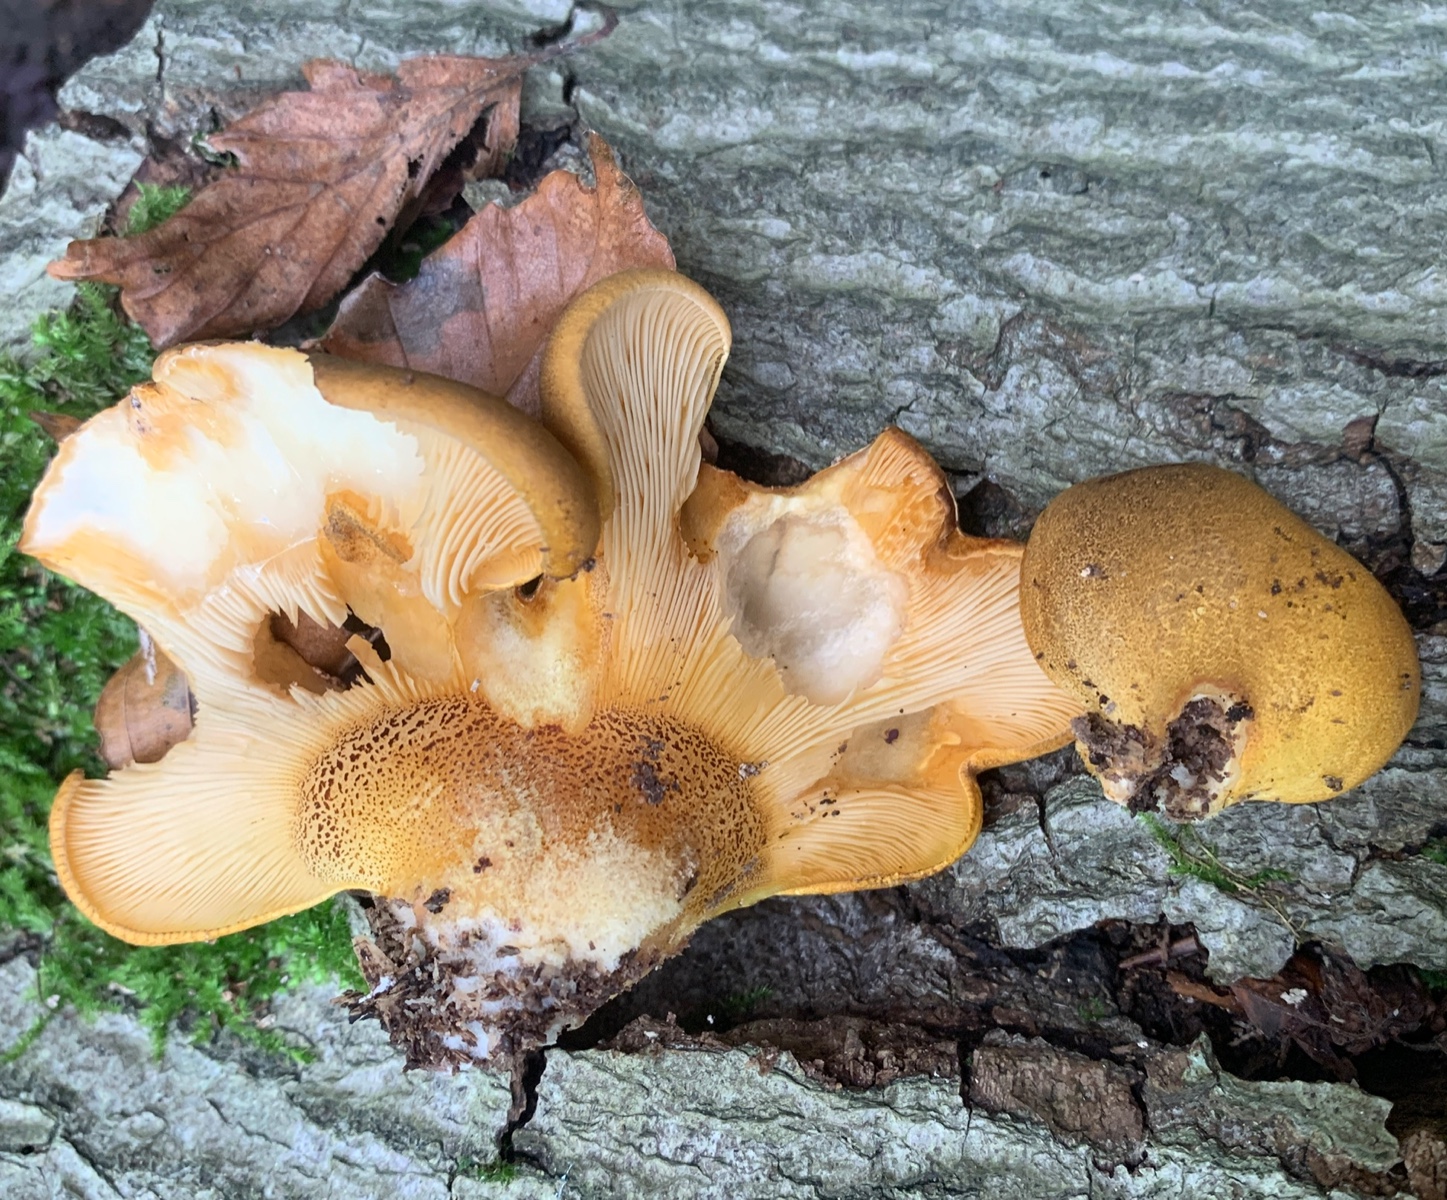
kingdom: Fungi
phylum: Basidiomycota
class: Agaricomycetes
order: Agaricales
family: Sarcomyxaceae
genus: Sarcomyxa
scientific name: Sarcomyxa serotina
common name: gummihat
